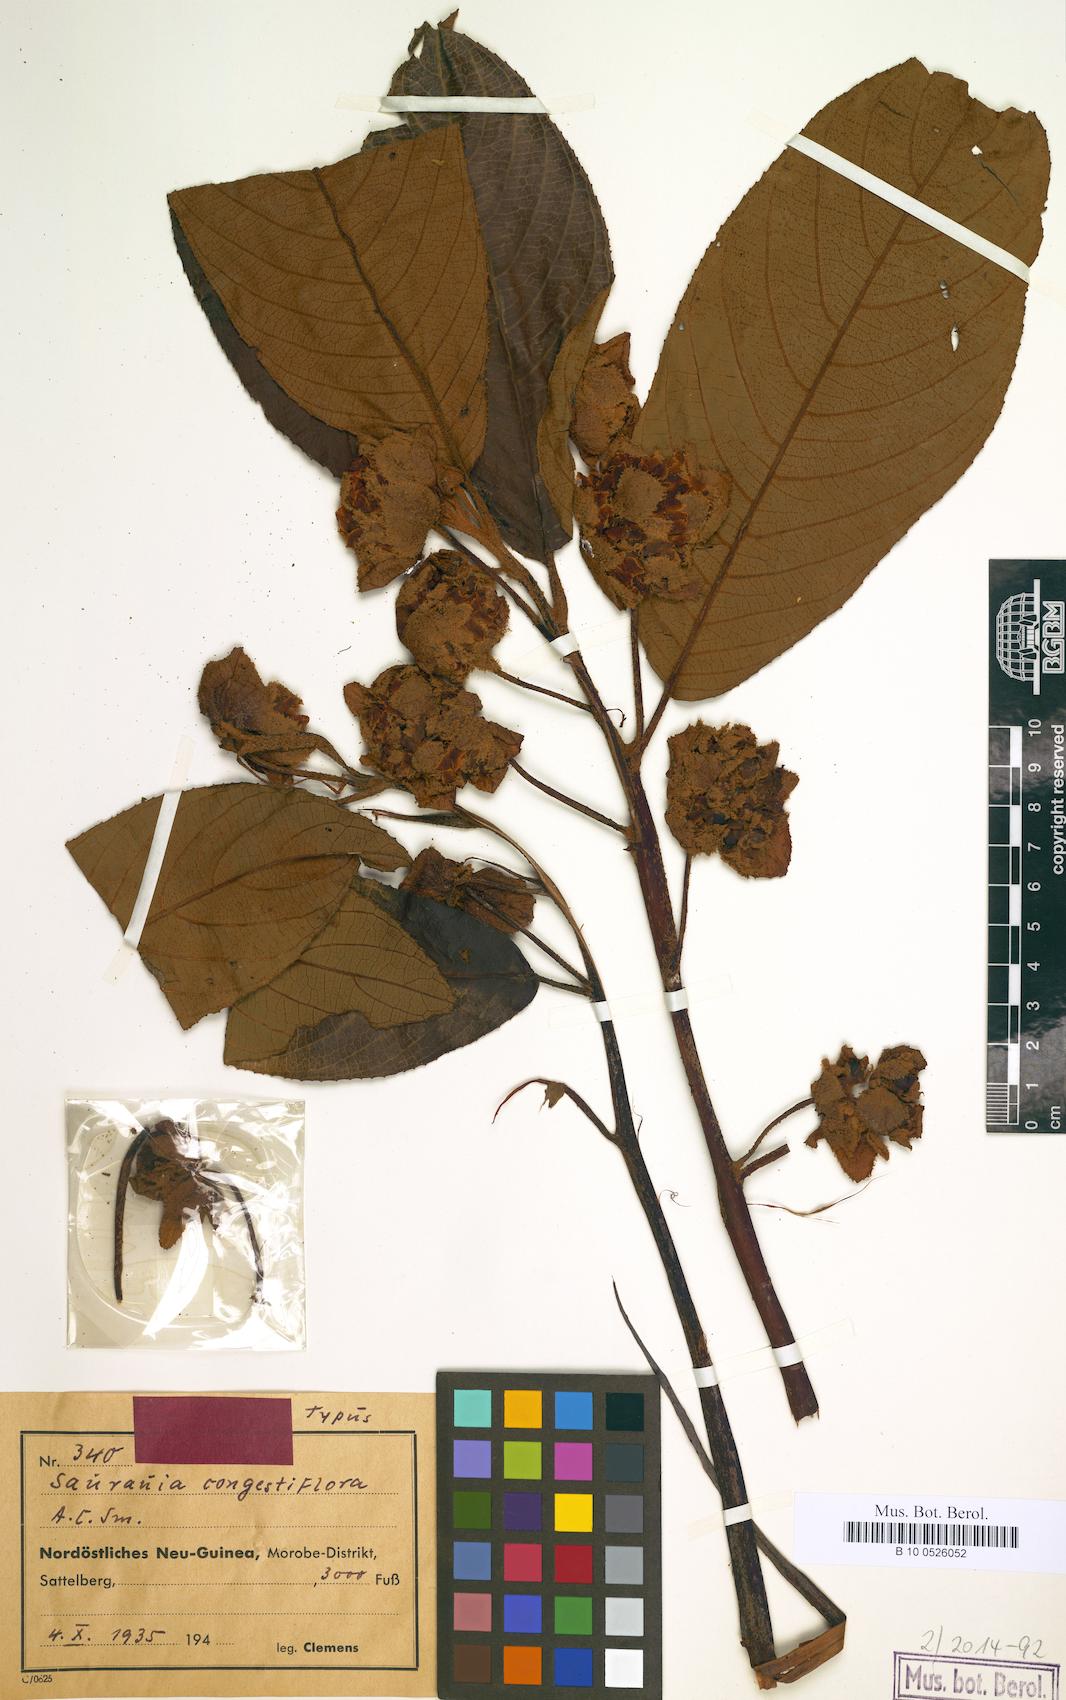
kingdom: Plantae
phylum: Tracheophyta
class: Magnoliopsida
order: Ericales
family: Actinidiaceae
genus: Saurauia
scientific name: Saurauia congestiflora
